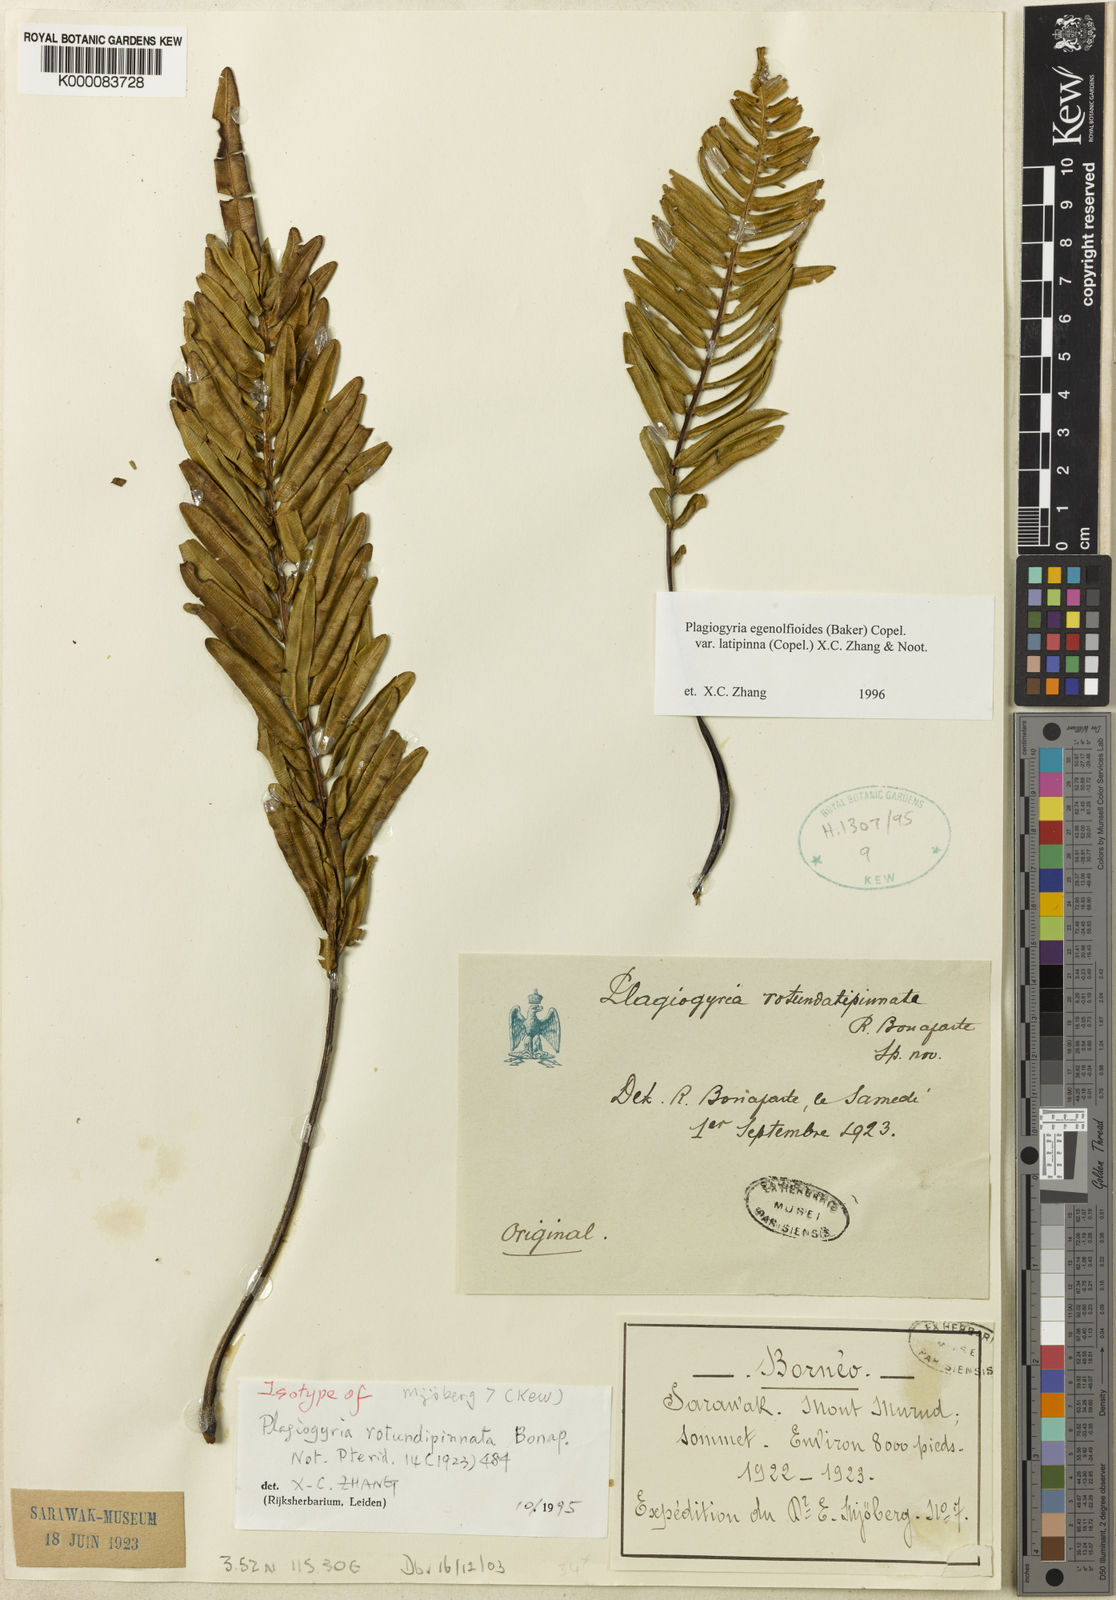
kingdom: Plantae
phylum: Tracheophyta
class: Polypodiopsida
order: Cyatheales
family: Plagiogyriaceae
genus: Plagiogyria
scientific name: Plagiogyria egenolfioides
